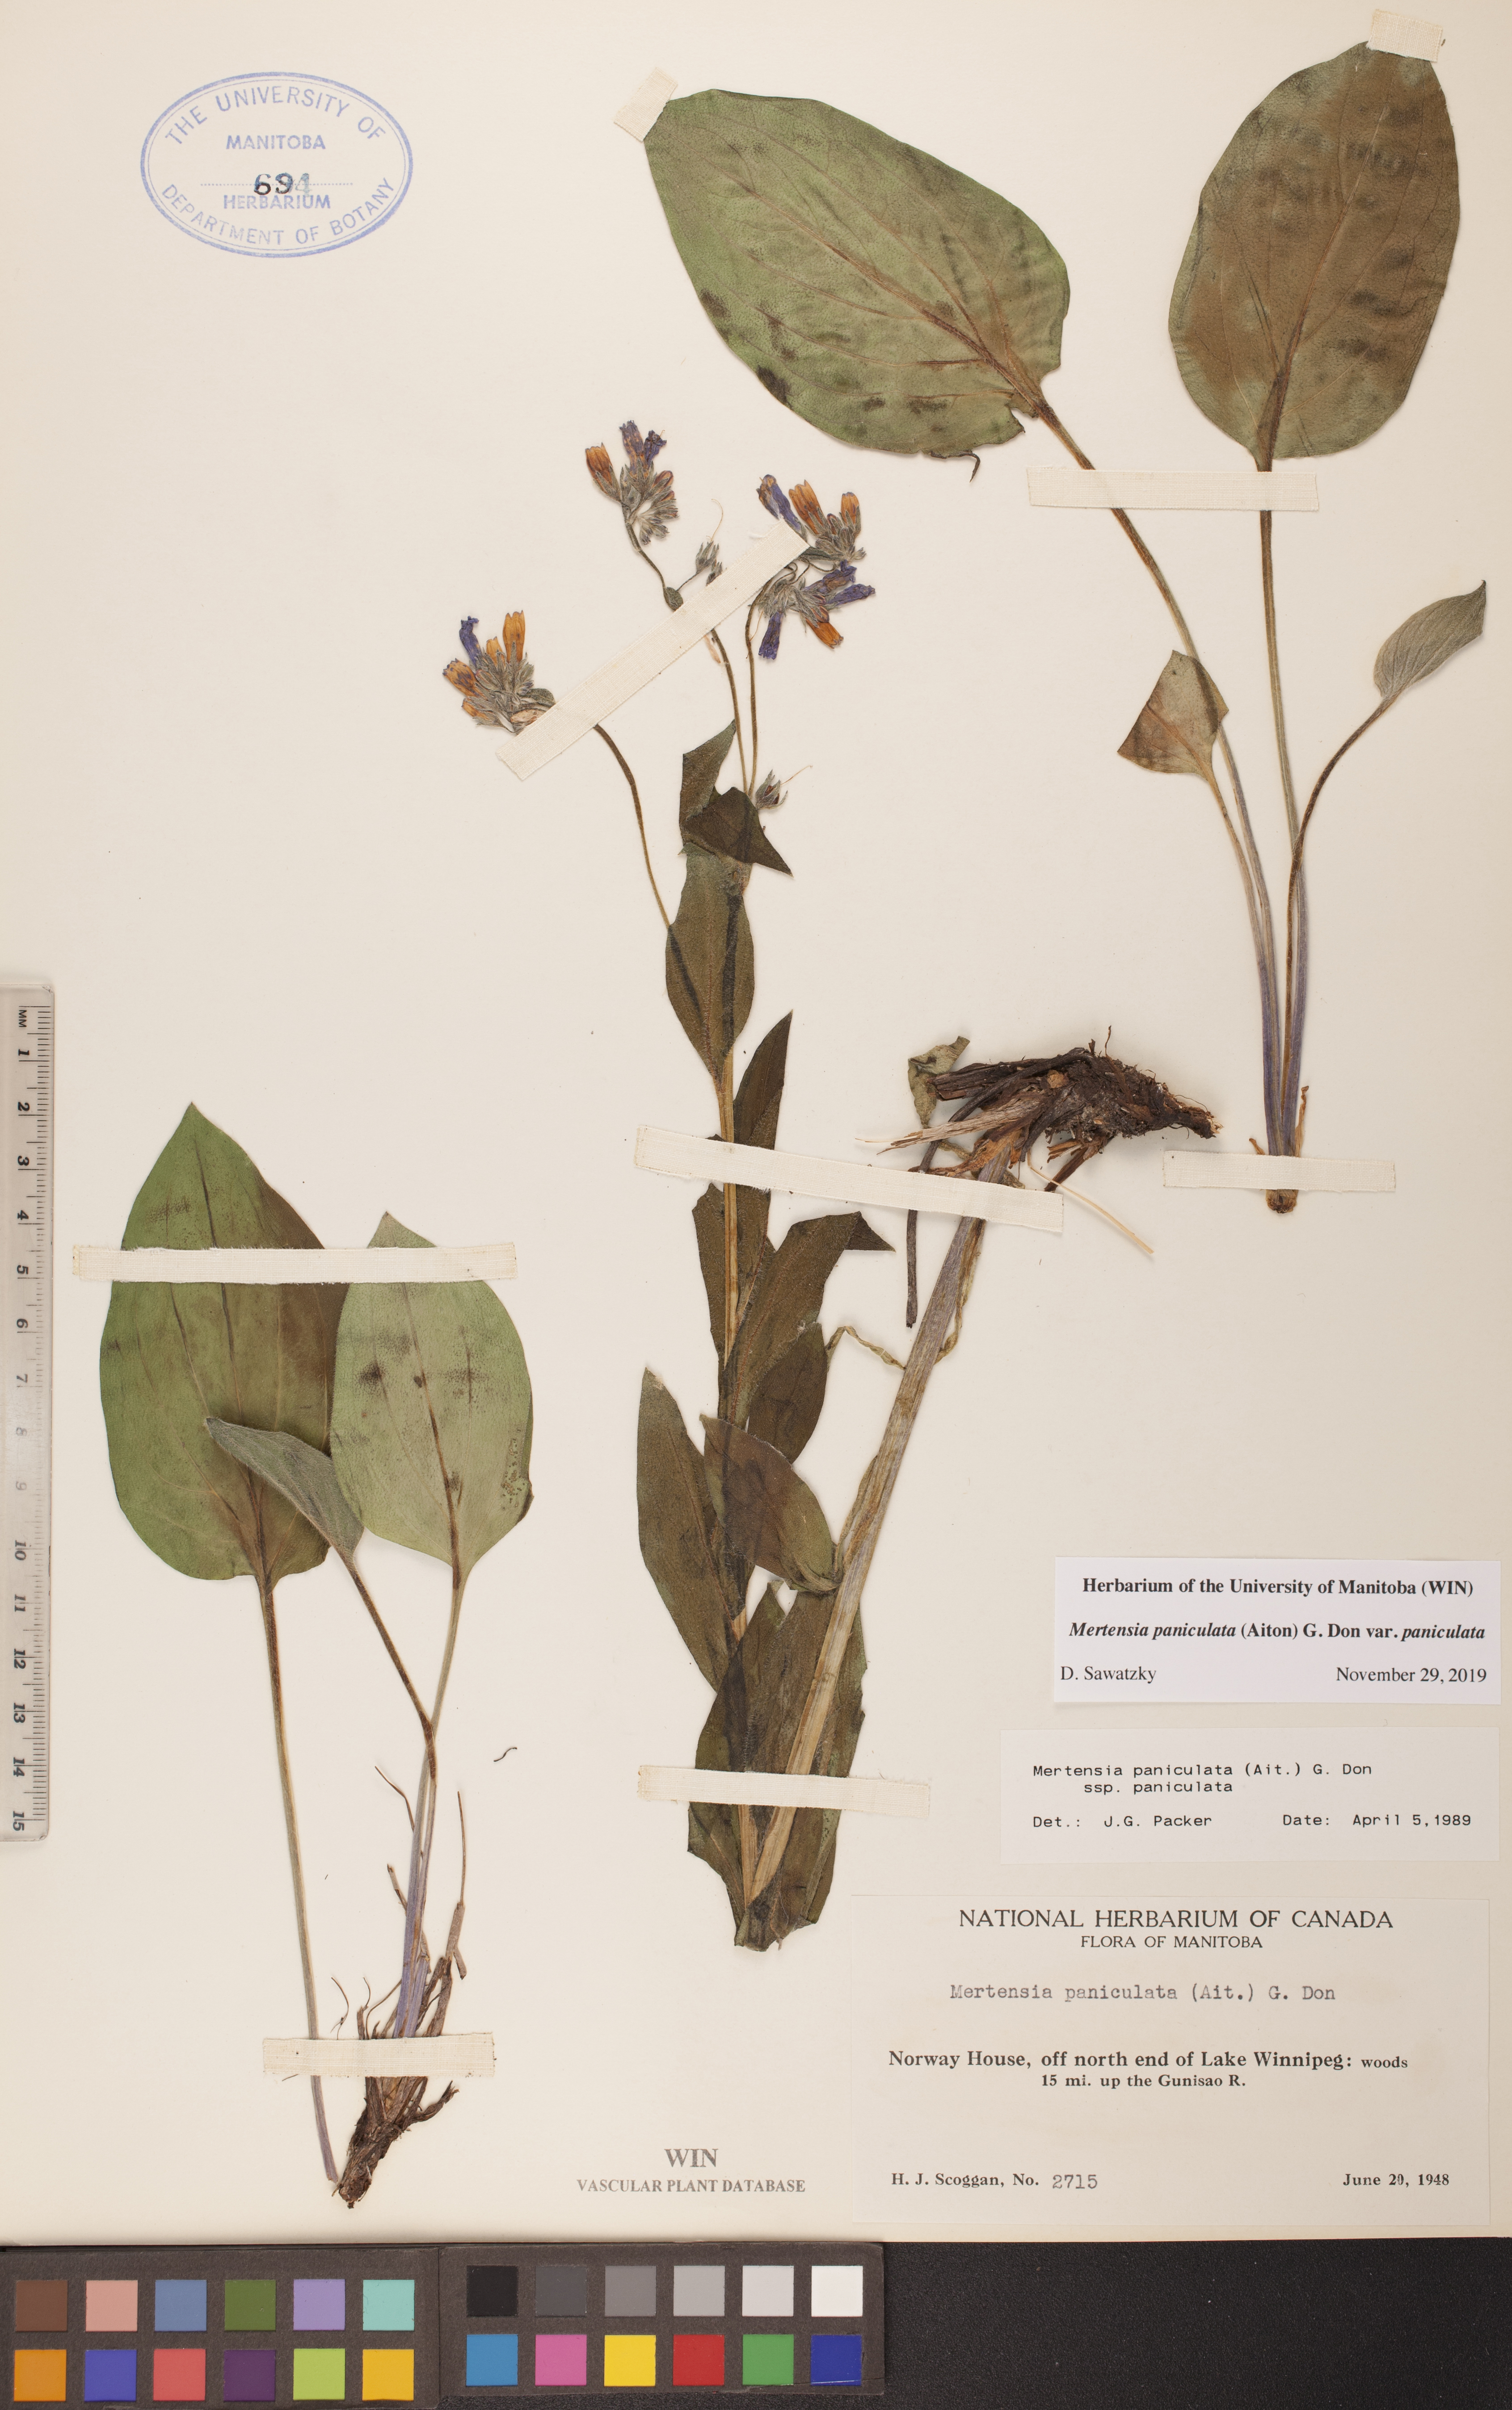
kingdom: Plantae
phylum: Tracheophyta
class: Magnoliopsida
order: Boraginales
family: Boraginaceae
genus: Mertensia
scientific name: Mertensia paniculata
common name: Panicled bluebells
